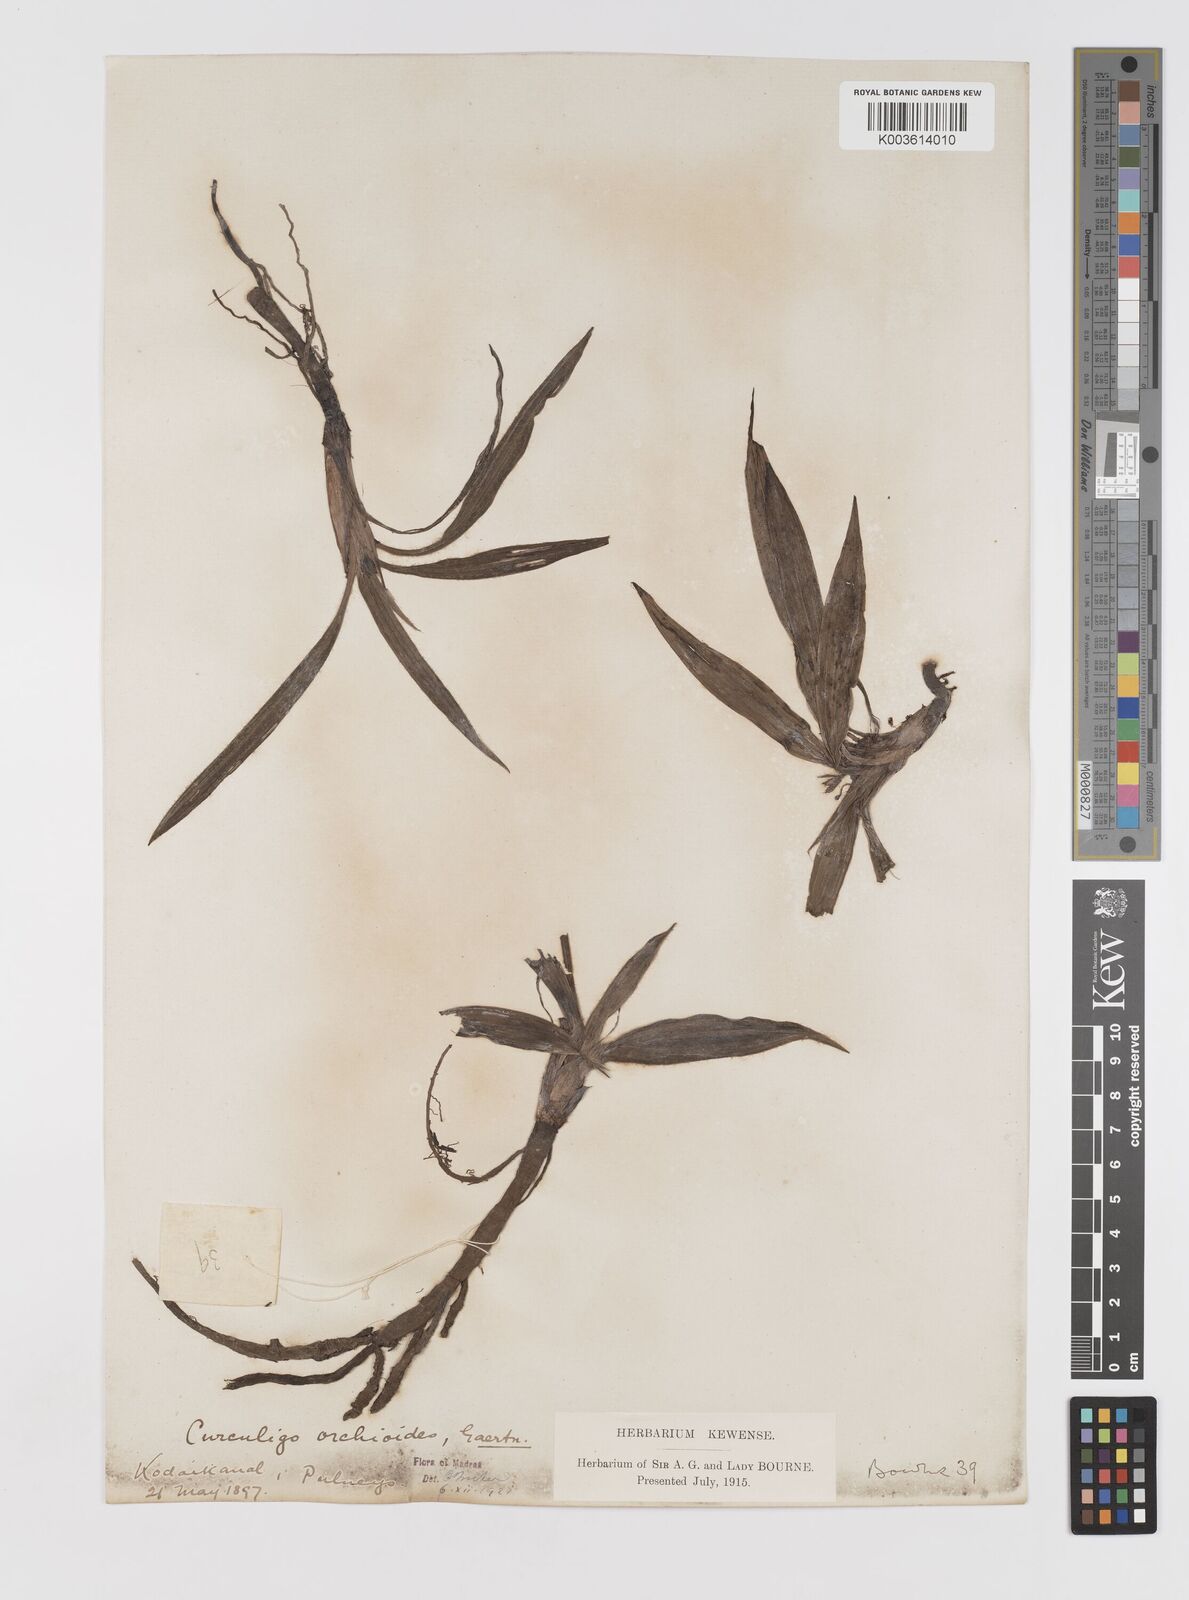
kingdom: Plantae
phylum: Tracheophyta
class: Liliopsida
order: Asparagales
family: Hypoxidaceae
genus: Curculigo
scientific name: Curculigo orchioides
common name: Golden eye-grass
